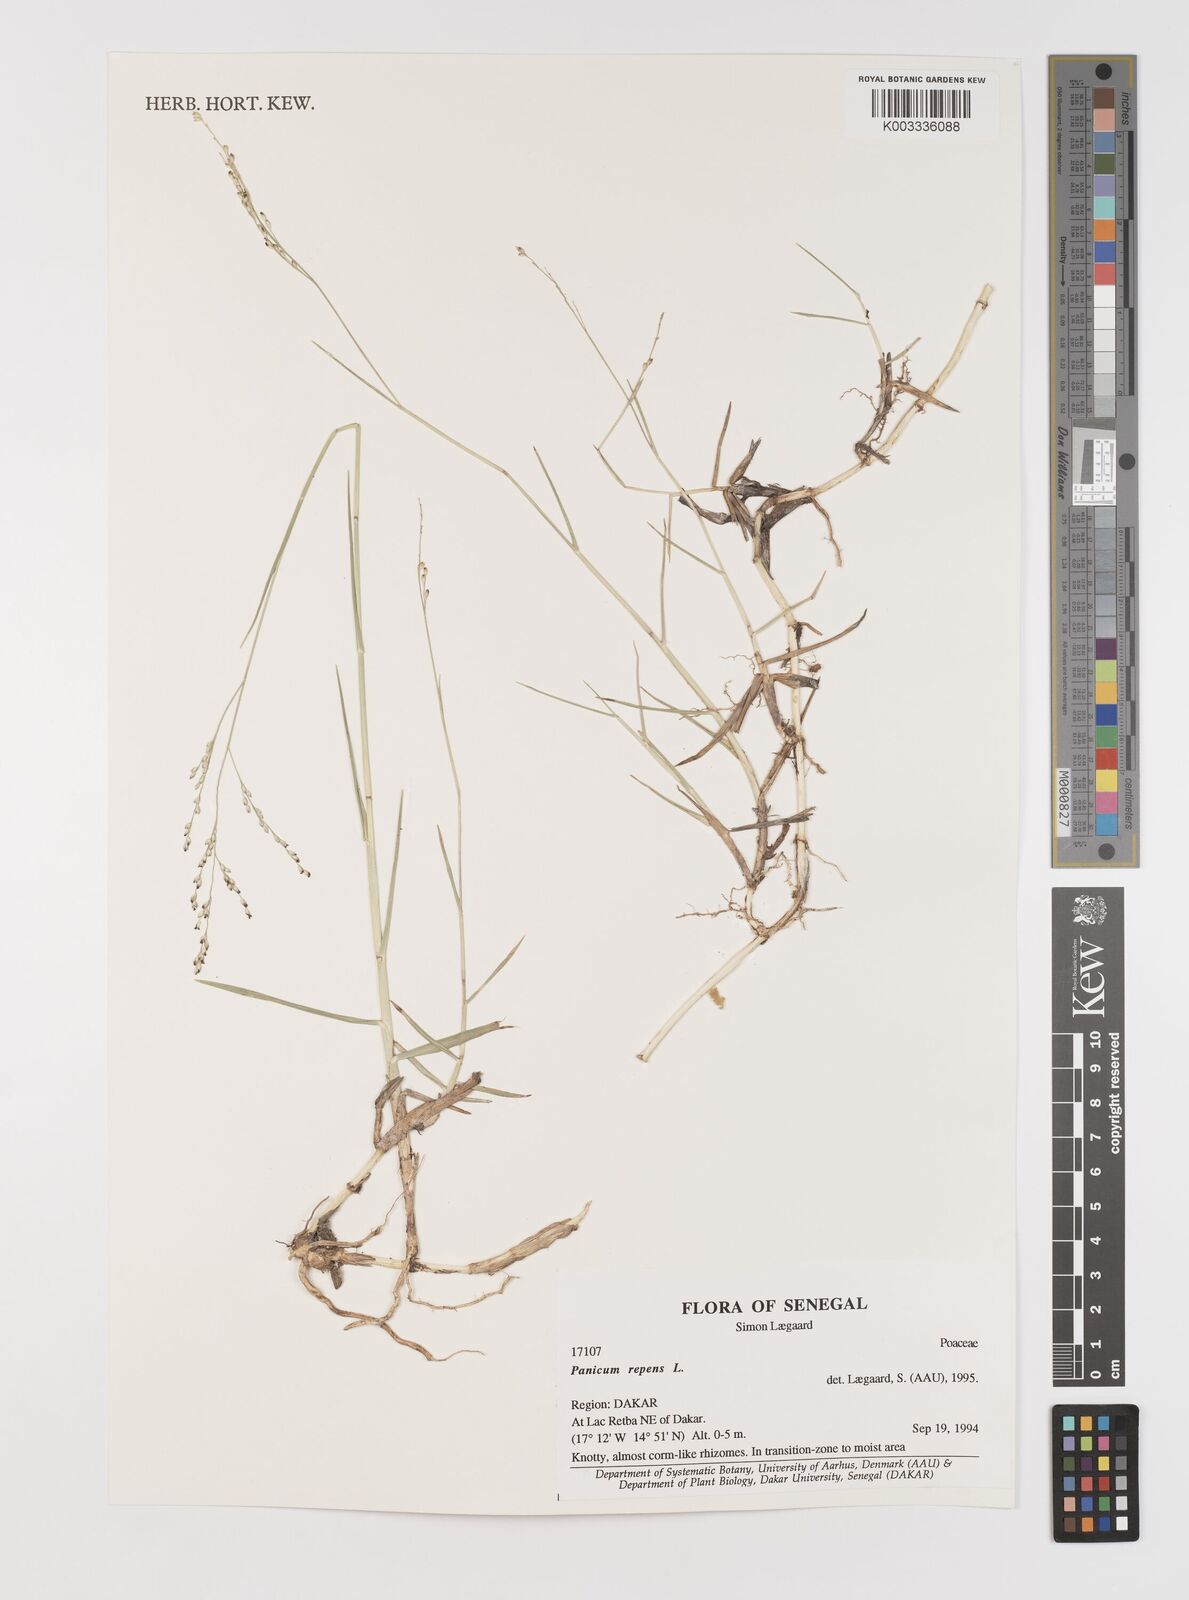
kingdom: Plantae
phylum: Tracheophyta
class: Liliopsida
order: Poales
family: Poaceae
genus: Panicum
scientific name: Panicum repens
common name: Torpedo grass
